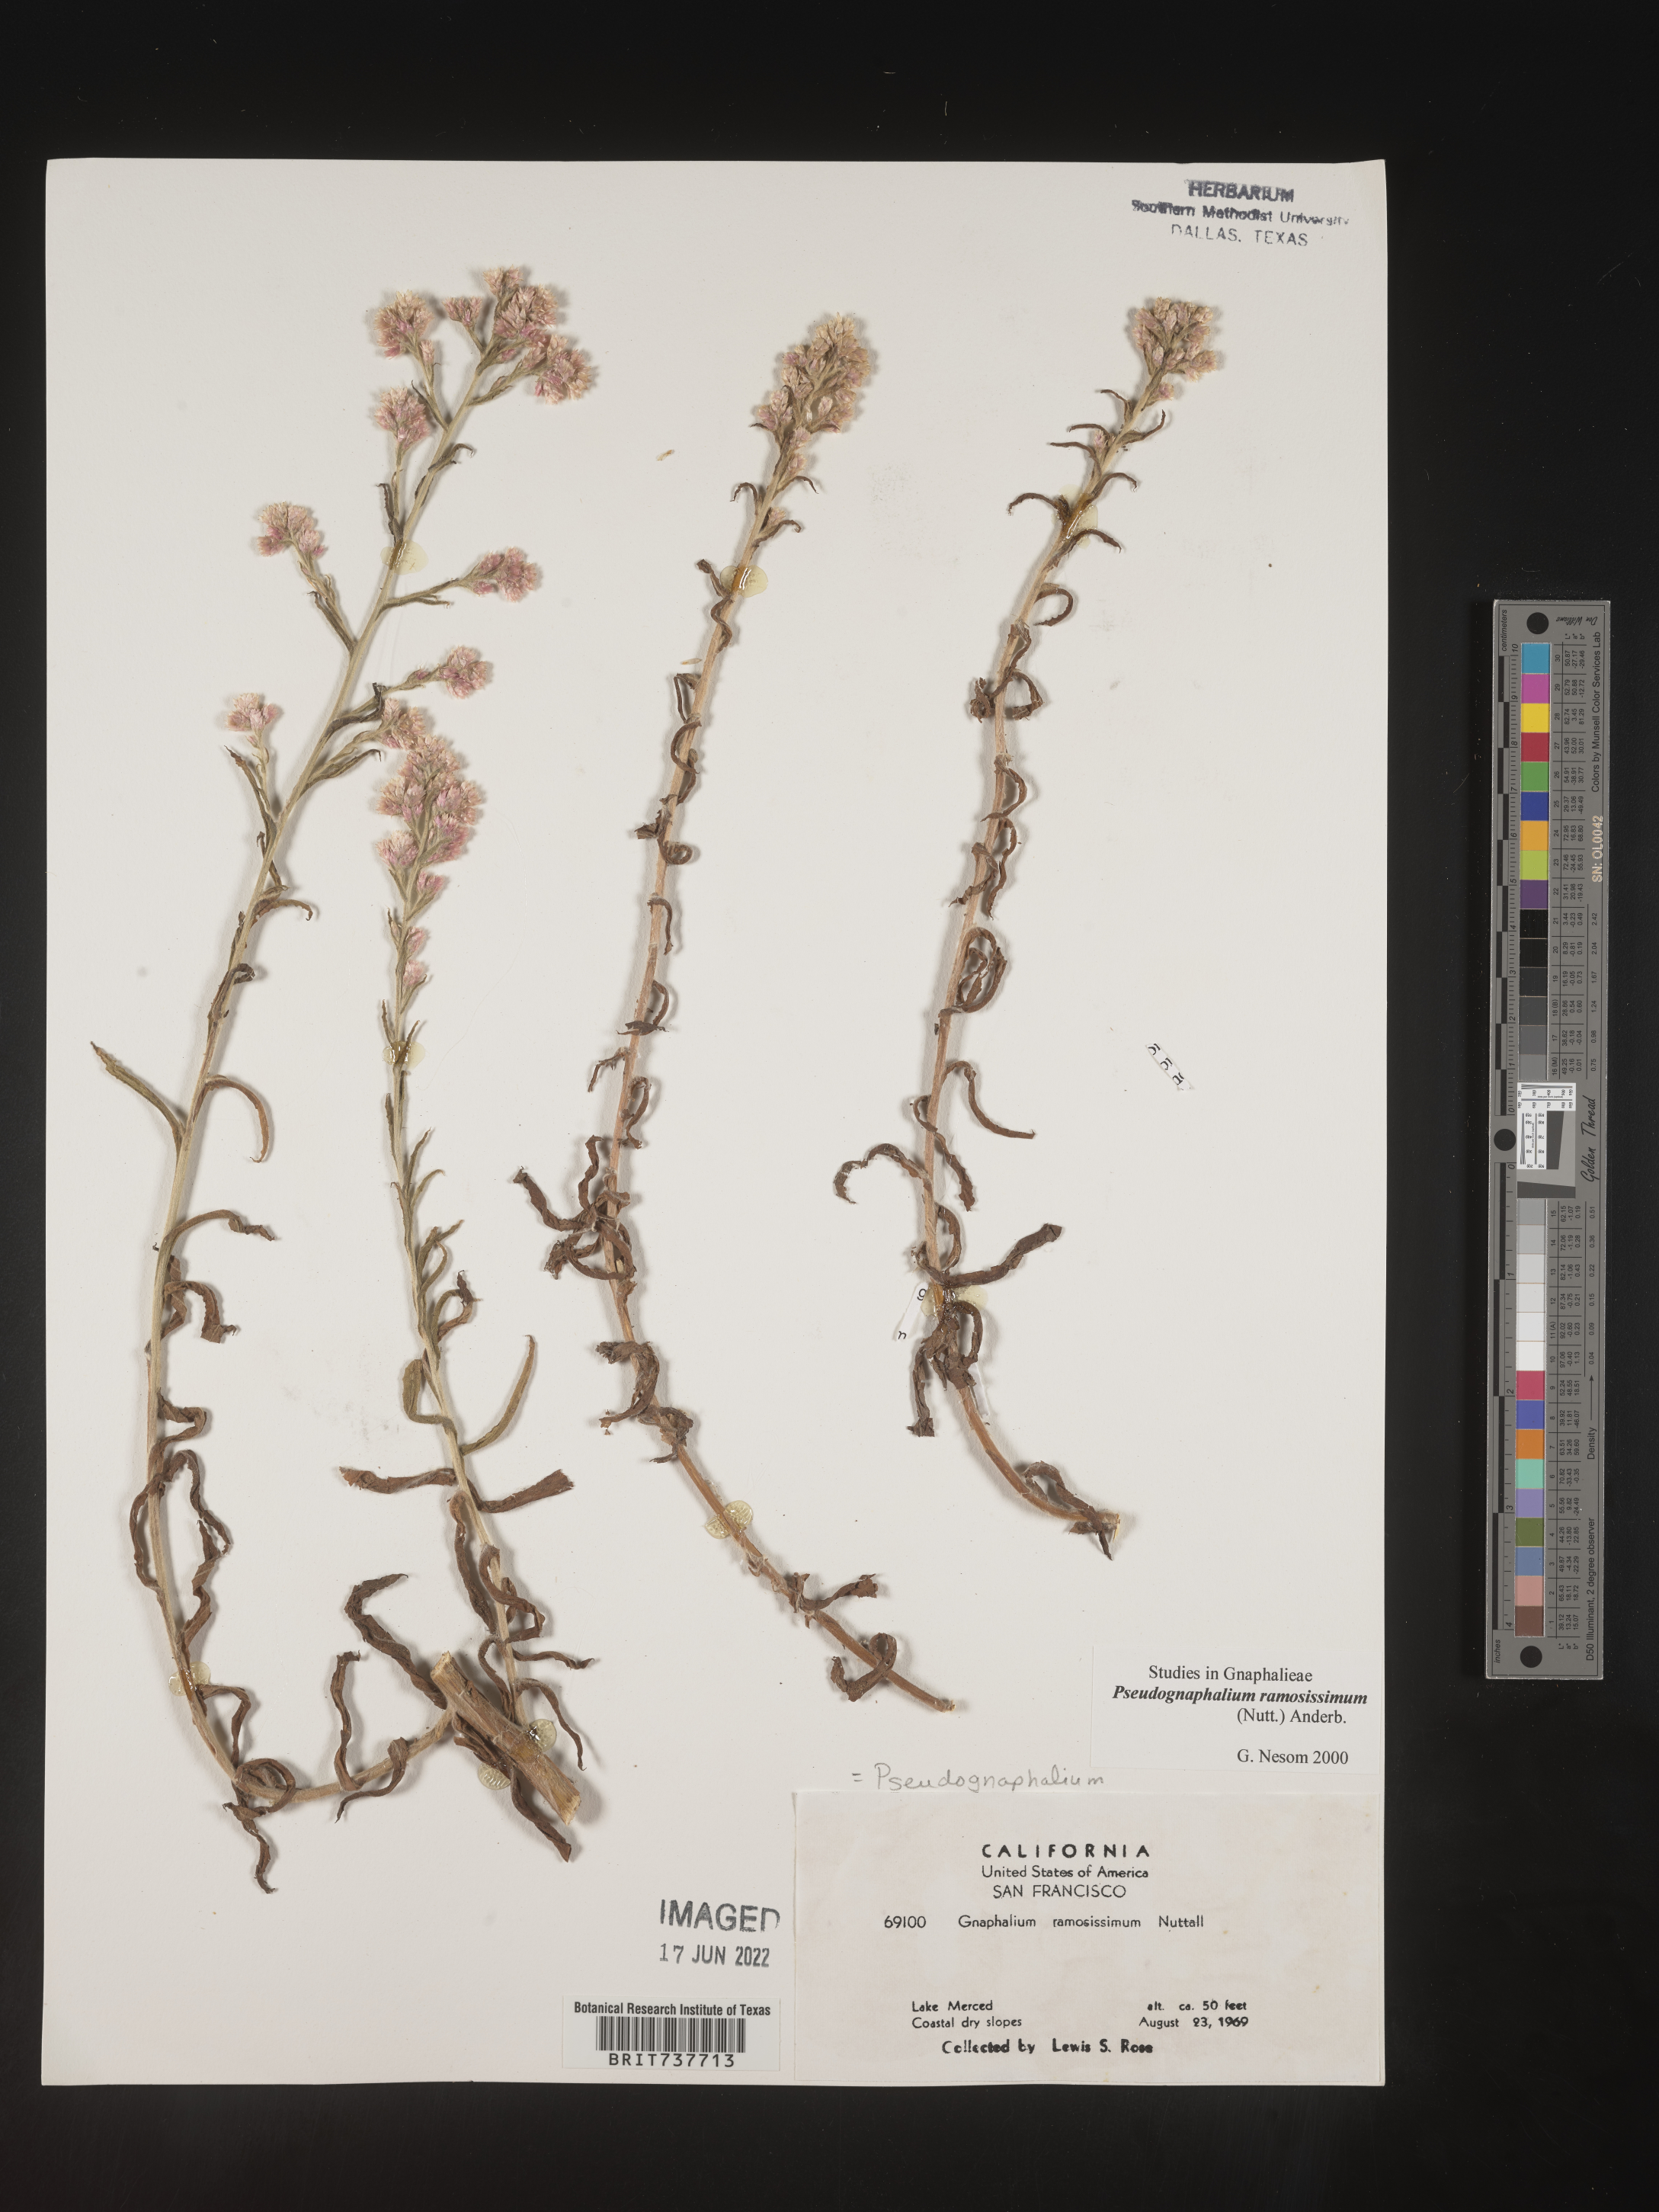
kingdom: Plantae
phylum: Tracheophyta
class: Magnoliopsida
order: Asterales
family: Asteraceae
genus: Pseudognaphalium
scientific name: Pseudognaphalium ramosissimum
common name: Pink rabbit-tobacco
